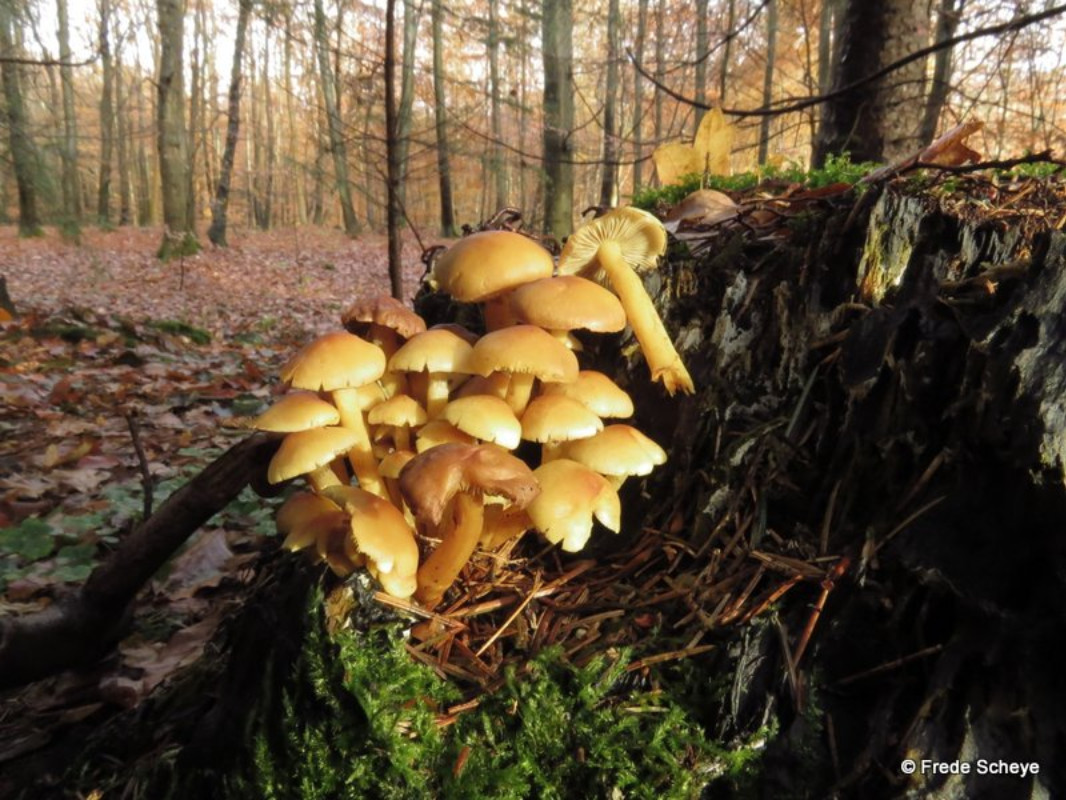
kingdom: Fungi
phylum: Basidiomycota
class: Agaricomycetes
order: Agaricales
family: Strophariaceae
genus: Hypholoma
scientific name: Hypholoma fasciculare
